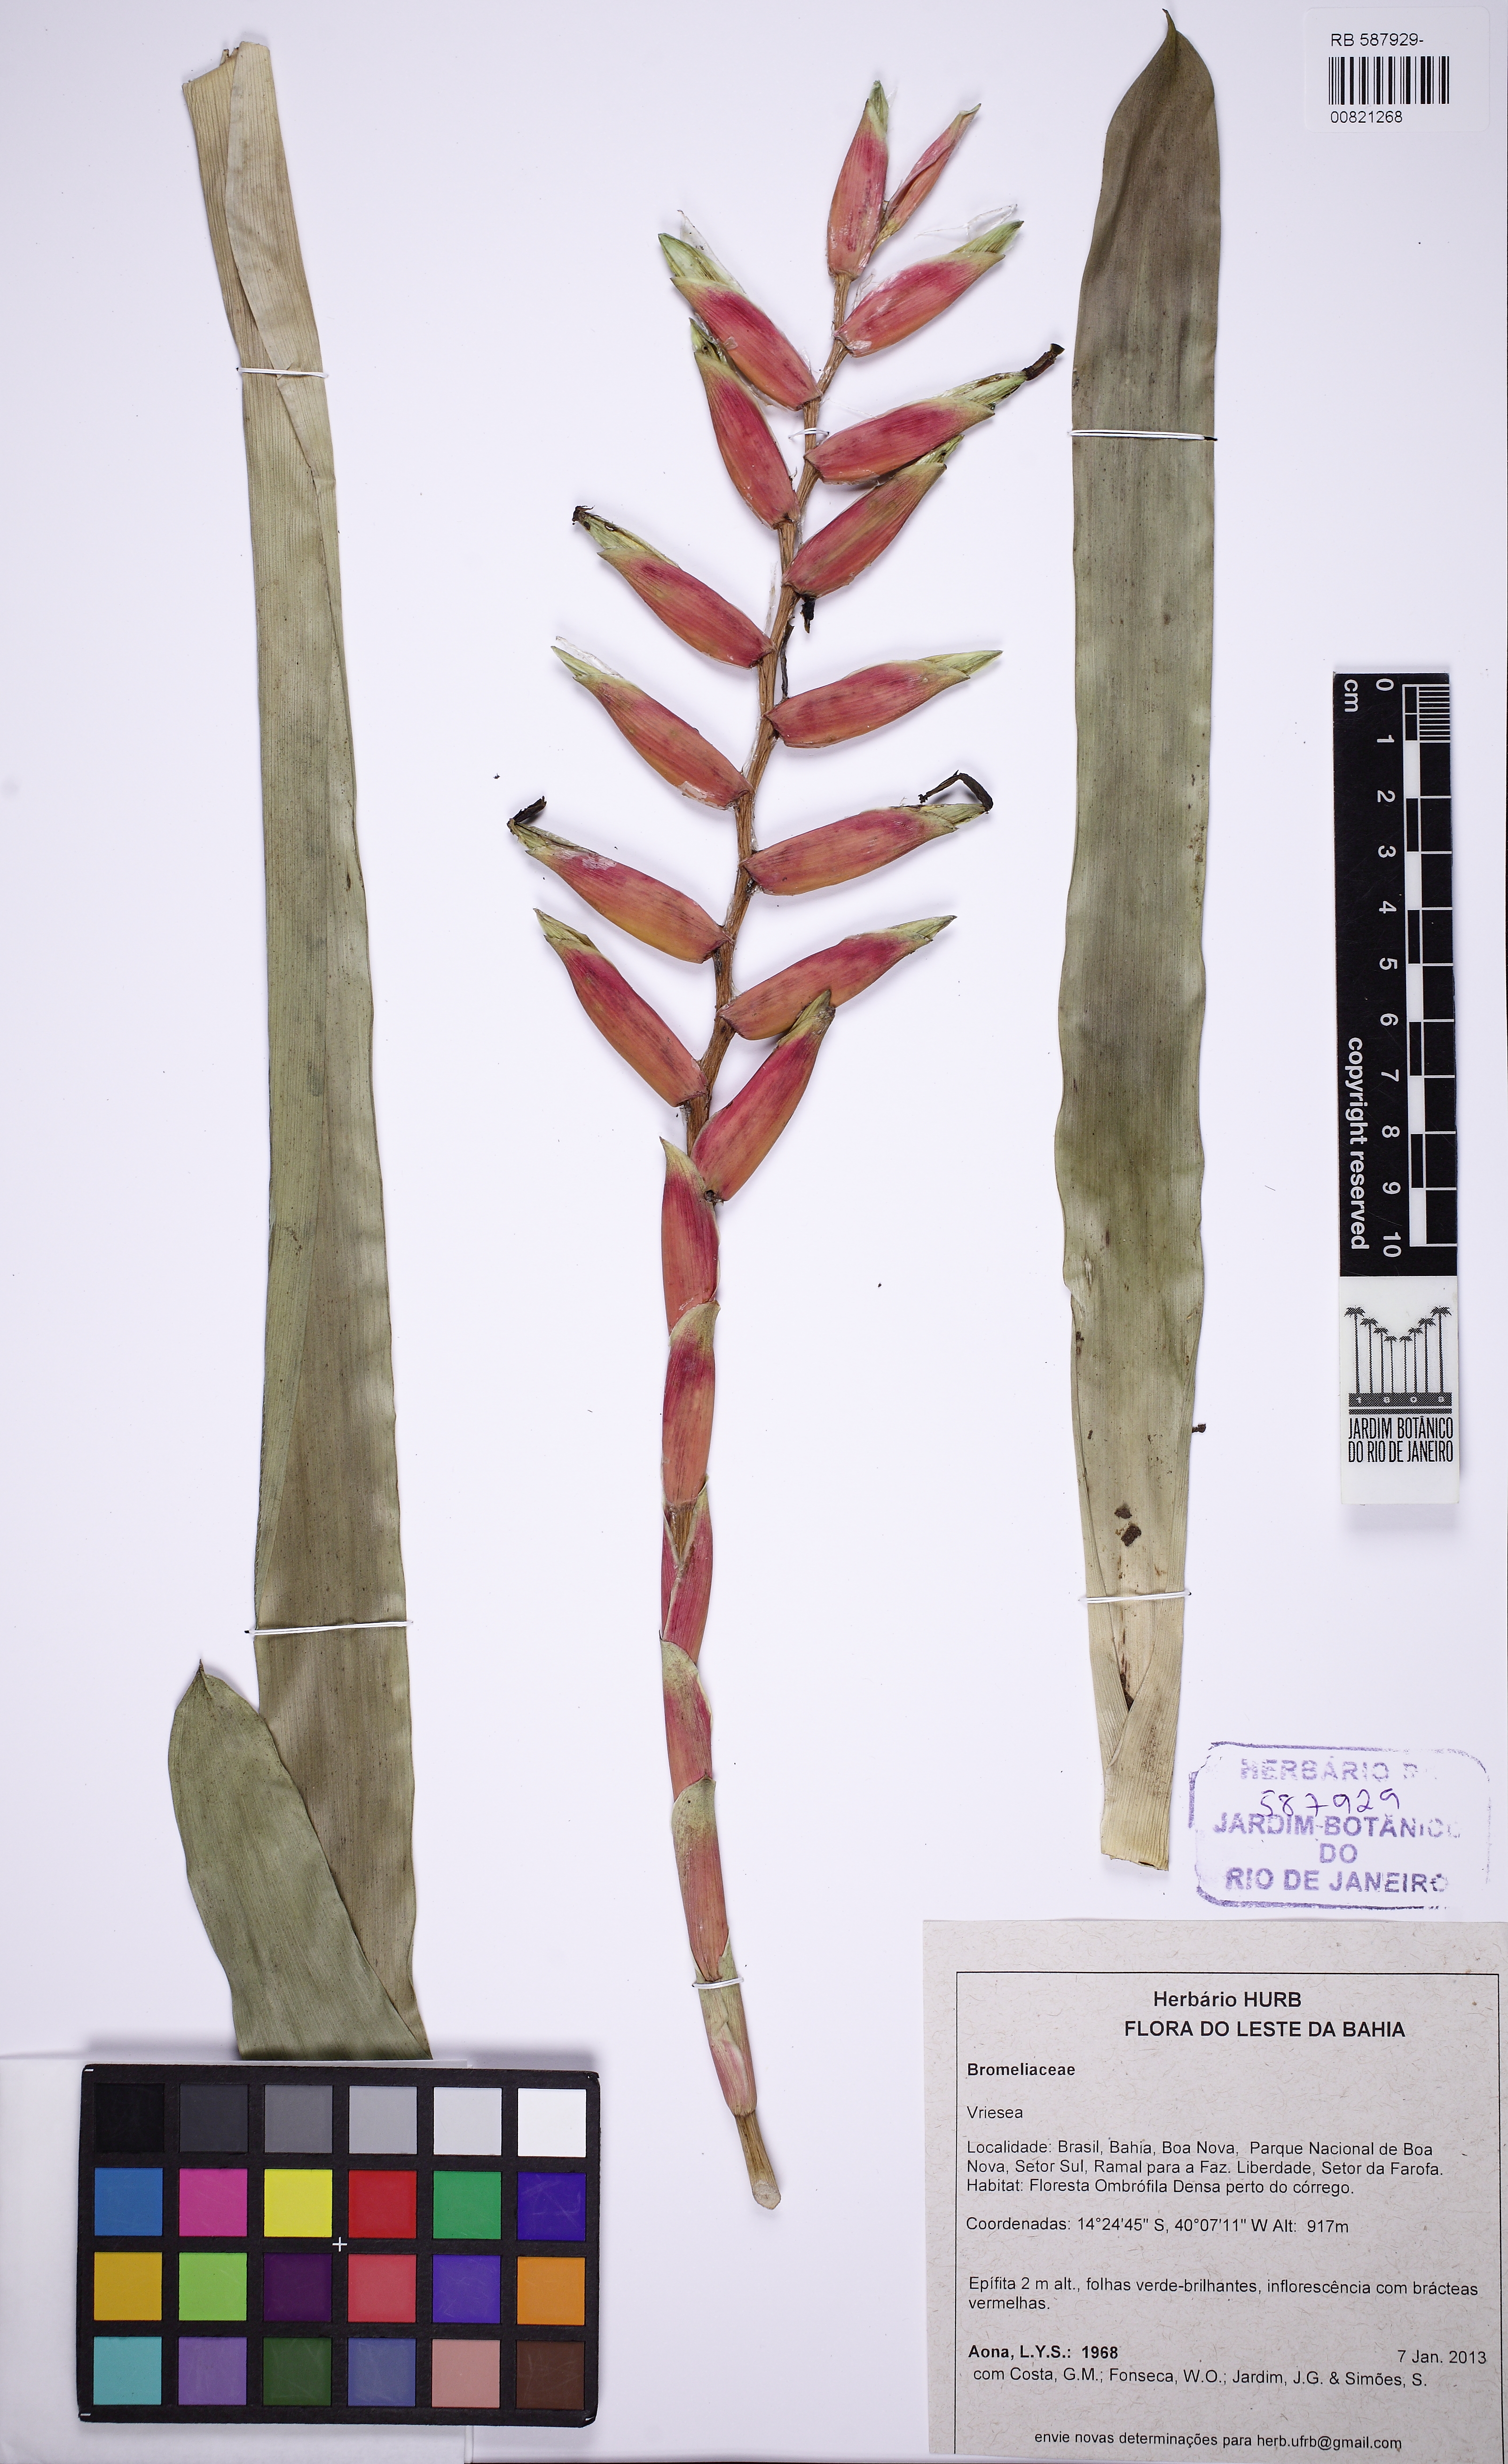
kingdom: Plantae
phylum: Tracheophyta
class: Liliopsida
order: Poales
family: Bromeliaceae
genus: Vriesea
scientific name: Vriesea ensiformis
